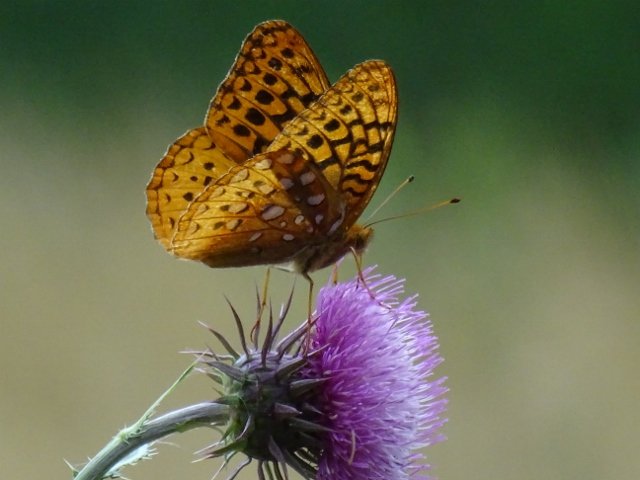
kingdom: Animalia
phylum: Arthropoda
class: Insecta
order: Lepidoptera
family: Nymphalidae
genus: Speyeria
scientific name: Speyeria cybele
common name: Great Spangled Fritillary
